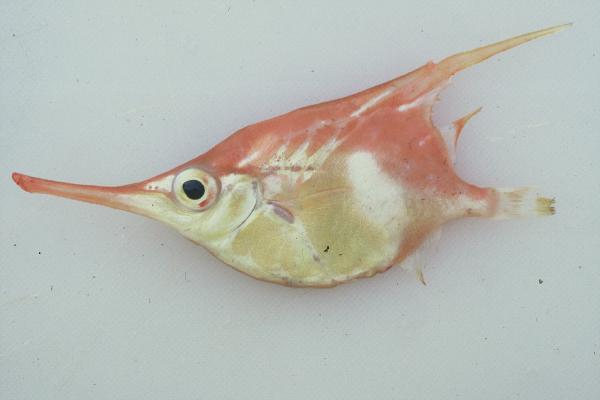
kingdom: Animalia
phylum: Chordata
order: Syngnathiformes
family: Centriscidae
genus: Notopogon
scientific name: Notopogon macrosolen
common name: Longsnout bellowfish
